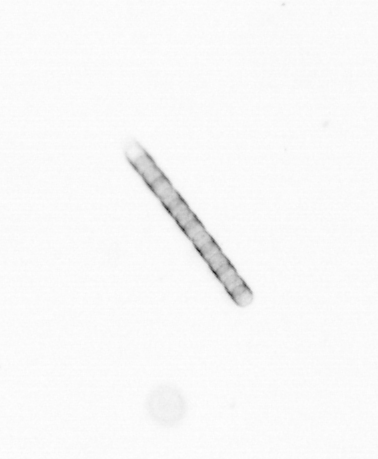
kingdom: Chromista
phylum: Ochrophyta
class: Bacillariophyceae
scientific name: Bacillariophyceae
